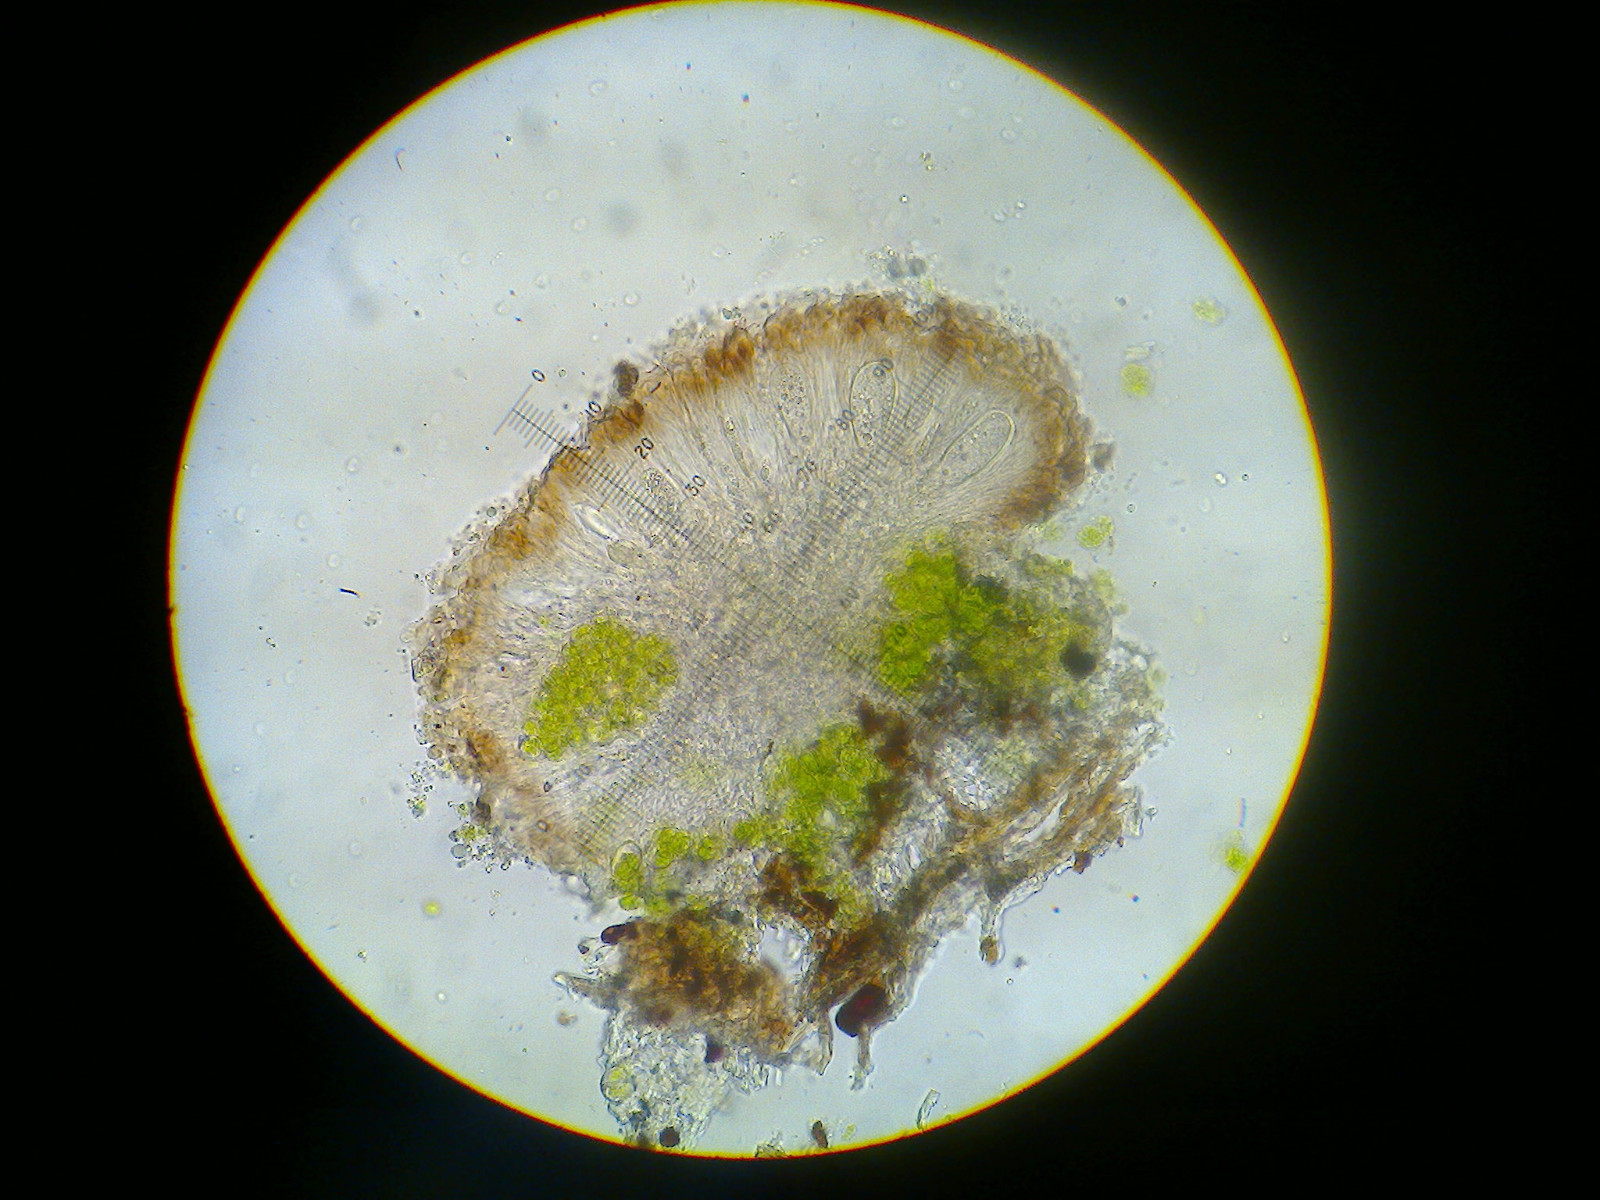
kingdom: Fungi
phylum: Ascomycota
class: Lecanoromycetes
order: Lecanorales
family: Strangosporaceae
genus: Strangospora
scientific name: Strangospora pinicola
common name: bark-tusindsporelav
